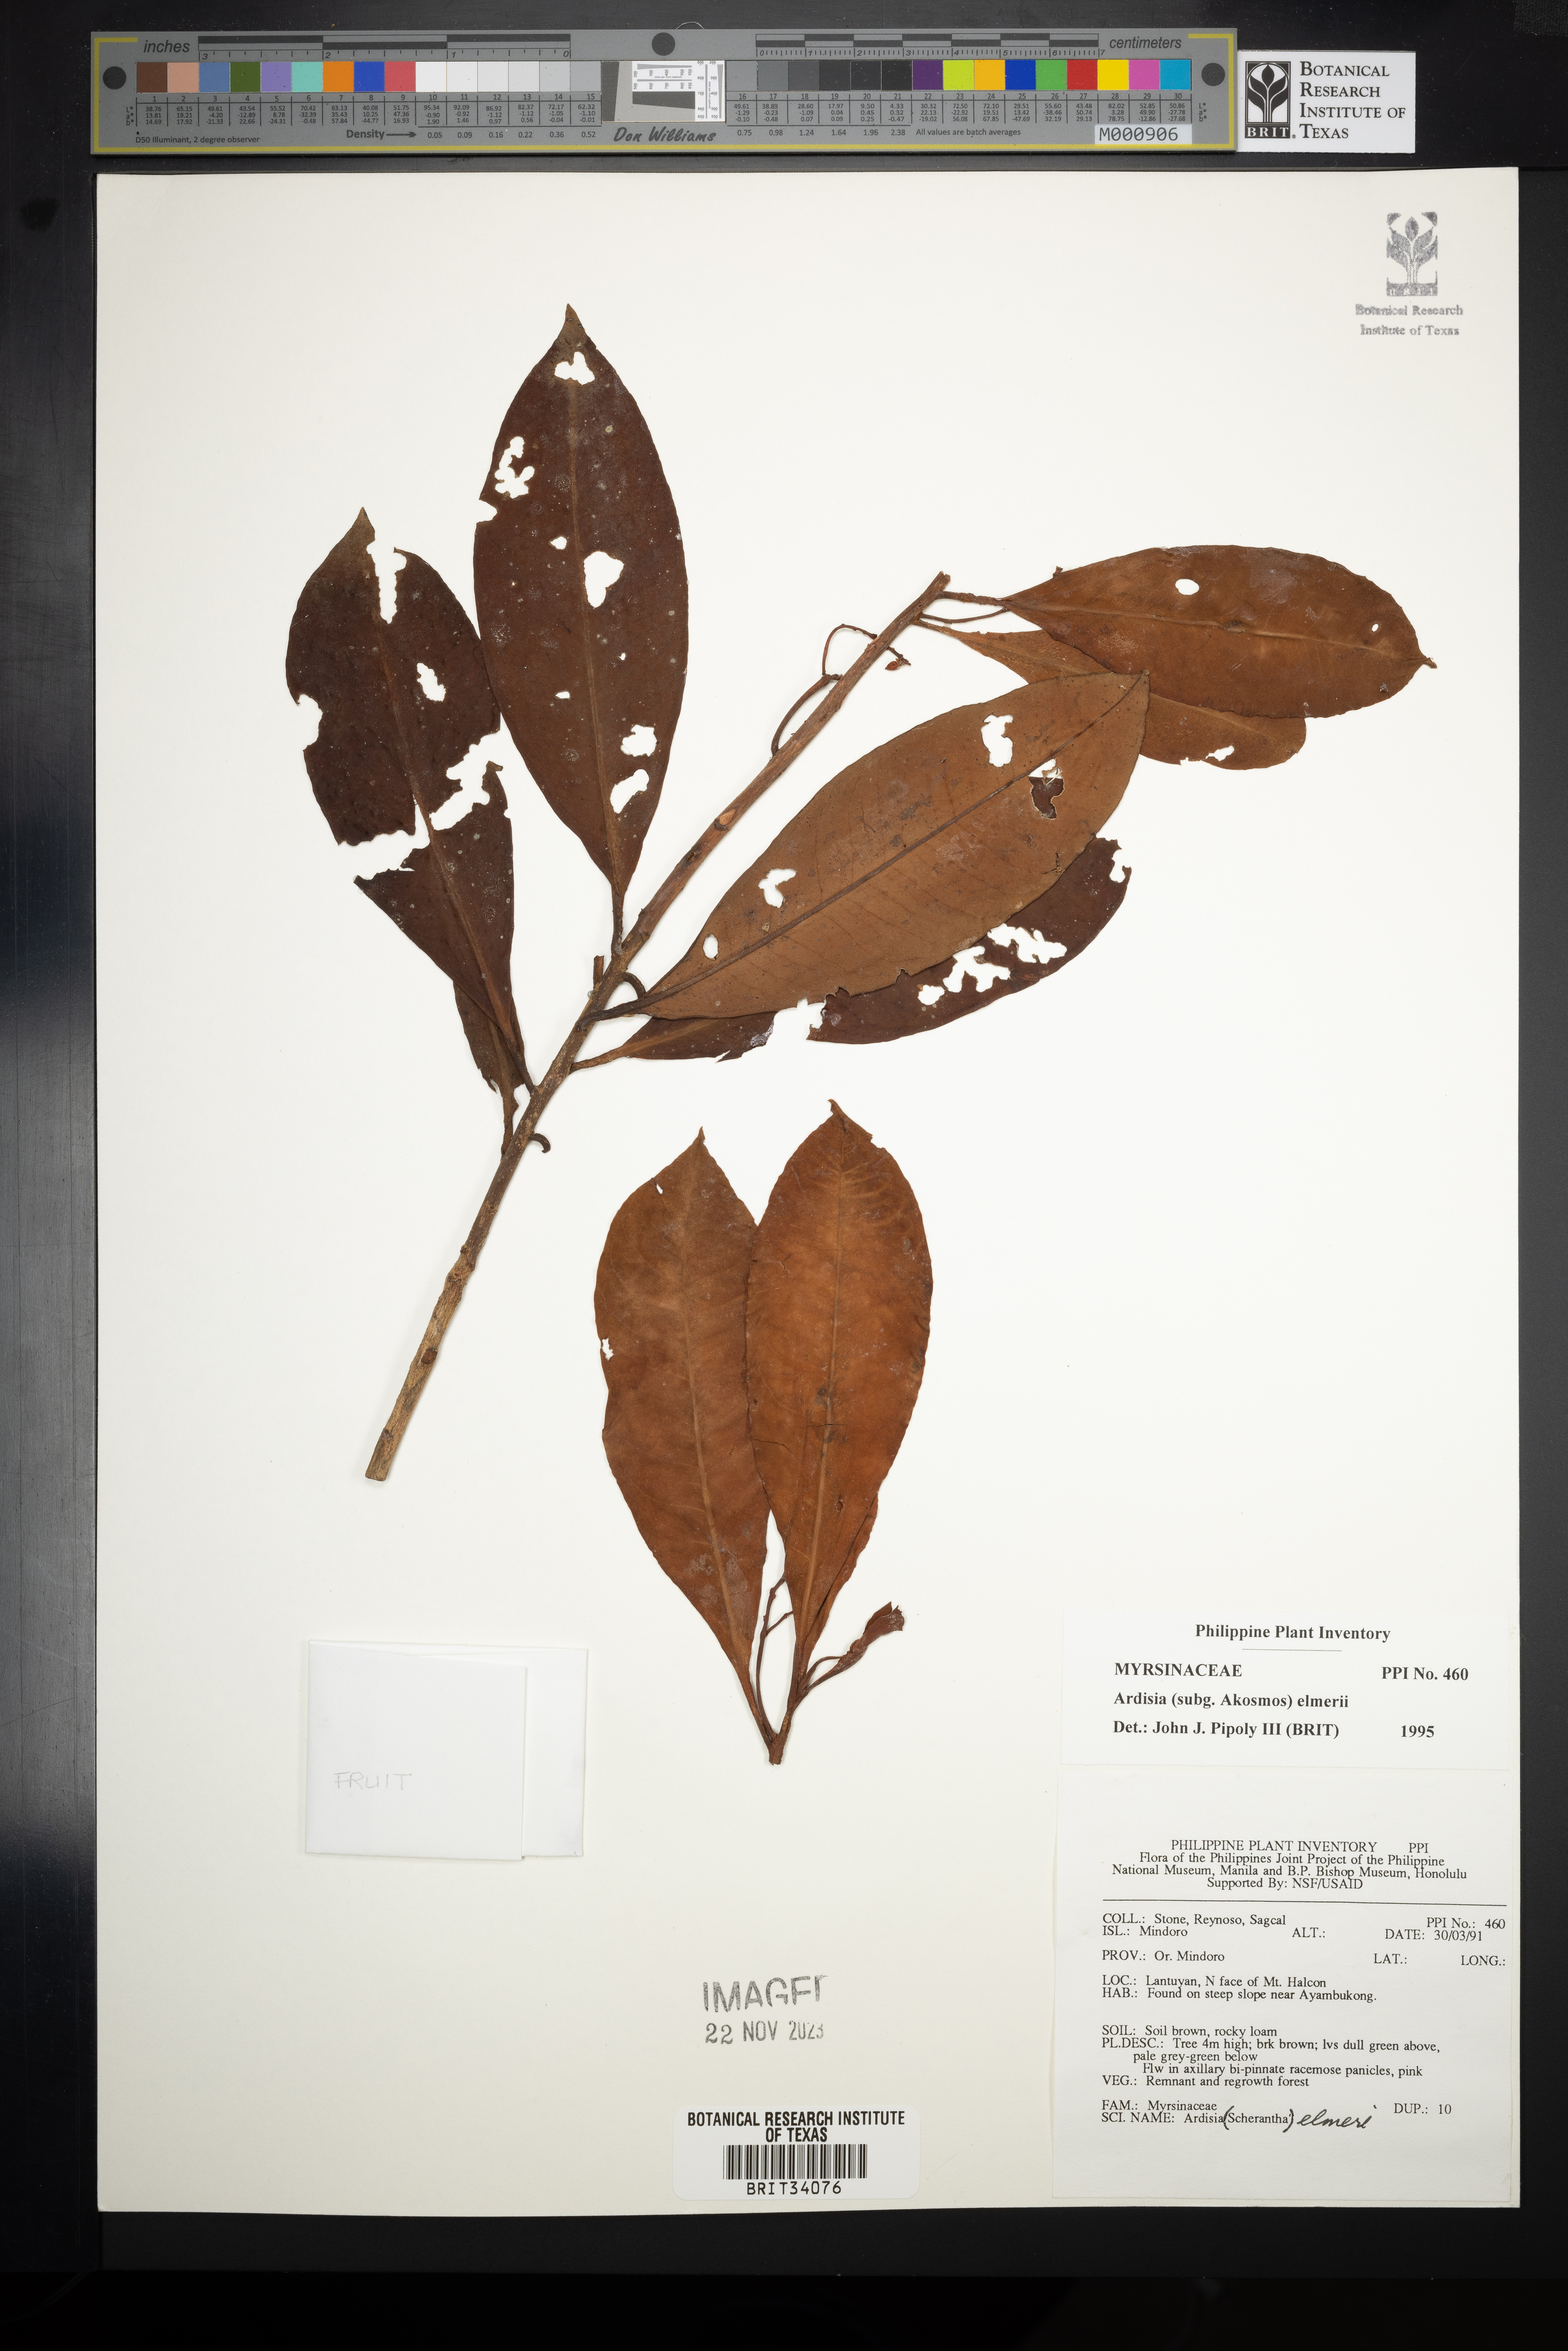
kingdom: Plantae
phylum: Tracheophyta
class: Magnoliopsida
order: Ericales
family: Primulaceae
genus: Ardisia
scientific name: Ardisia elmeri
